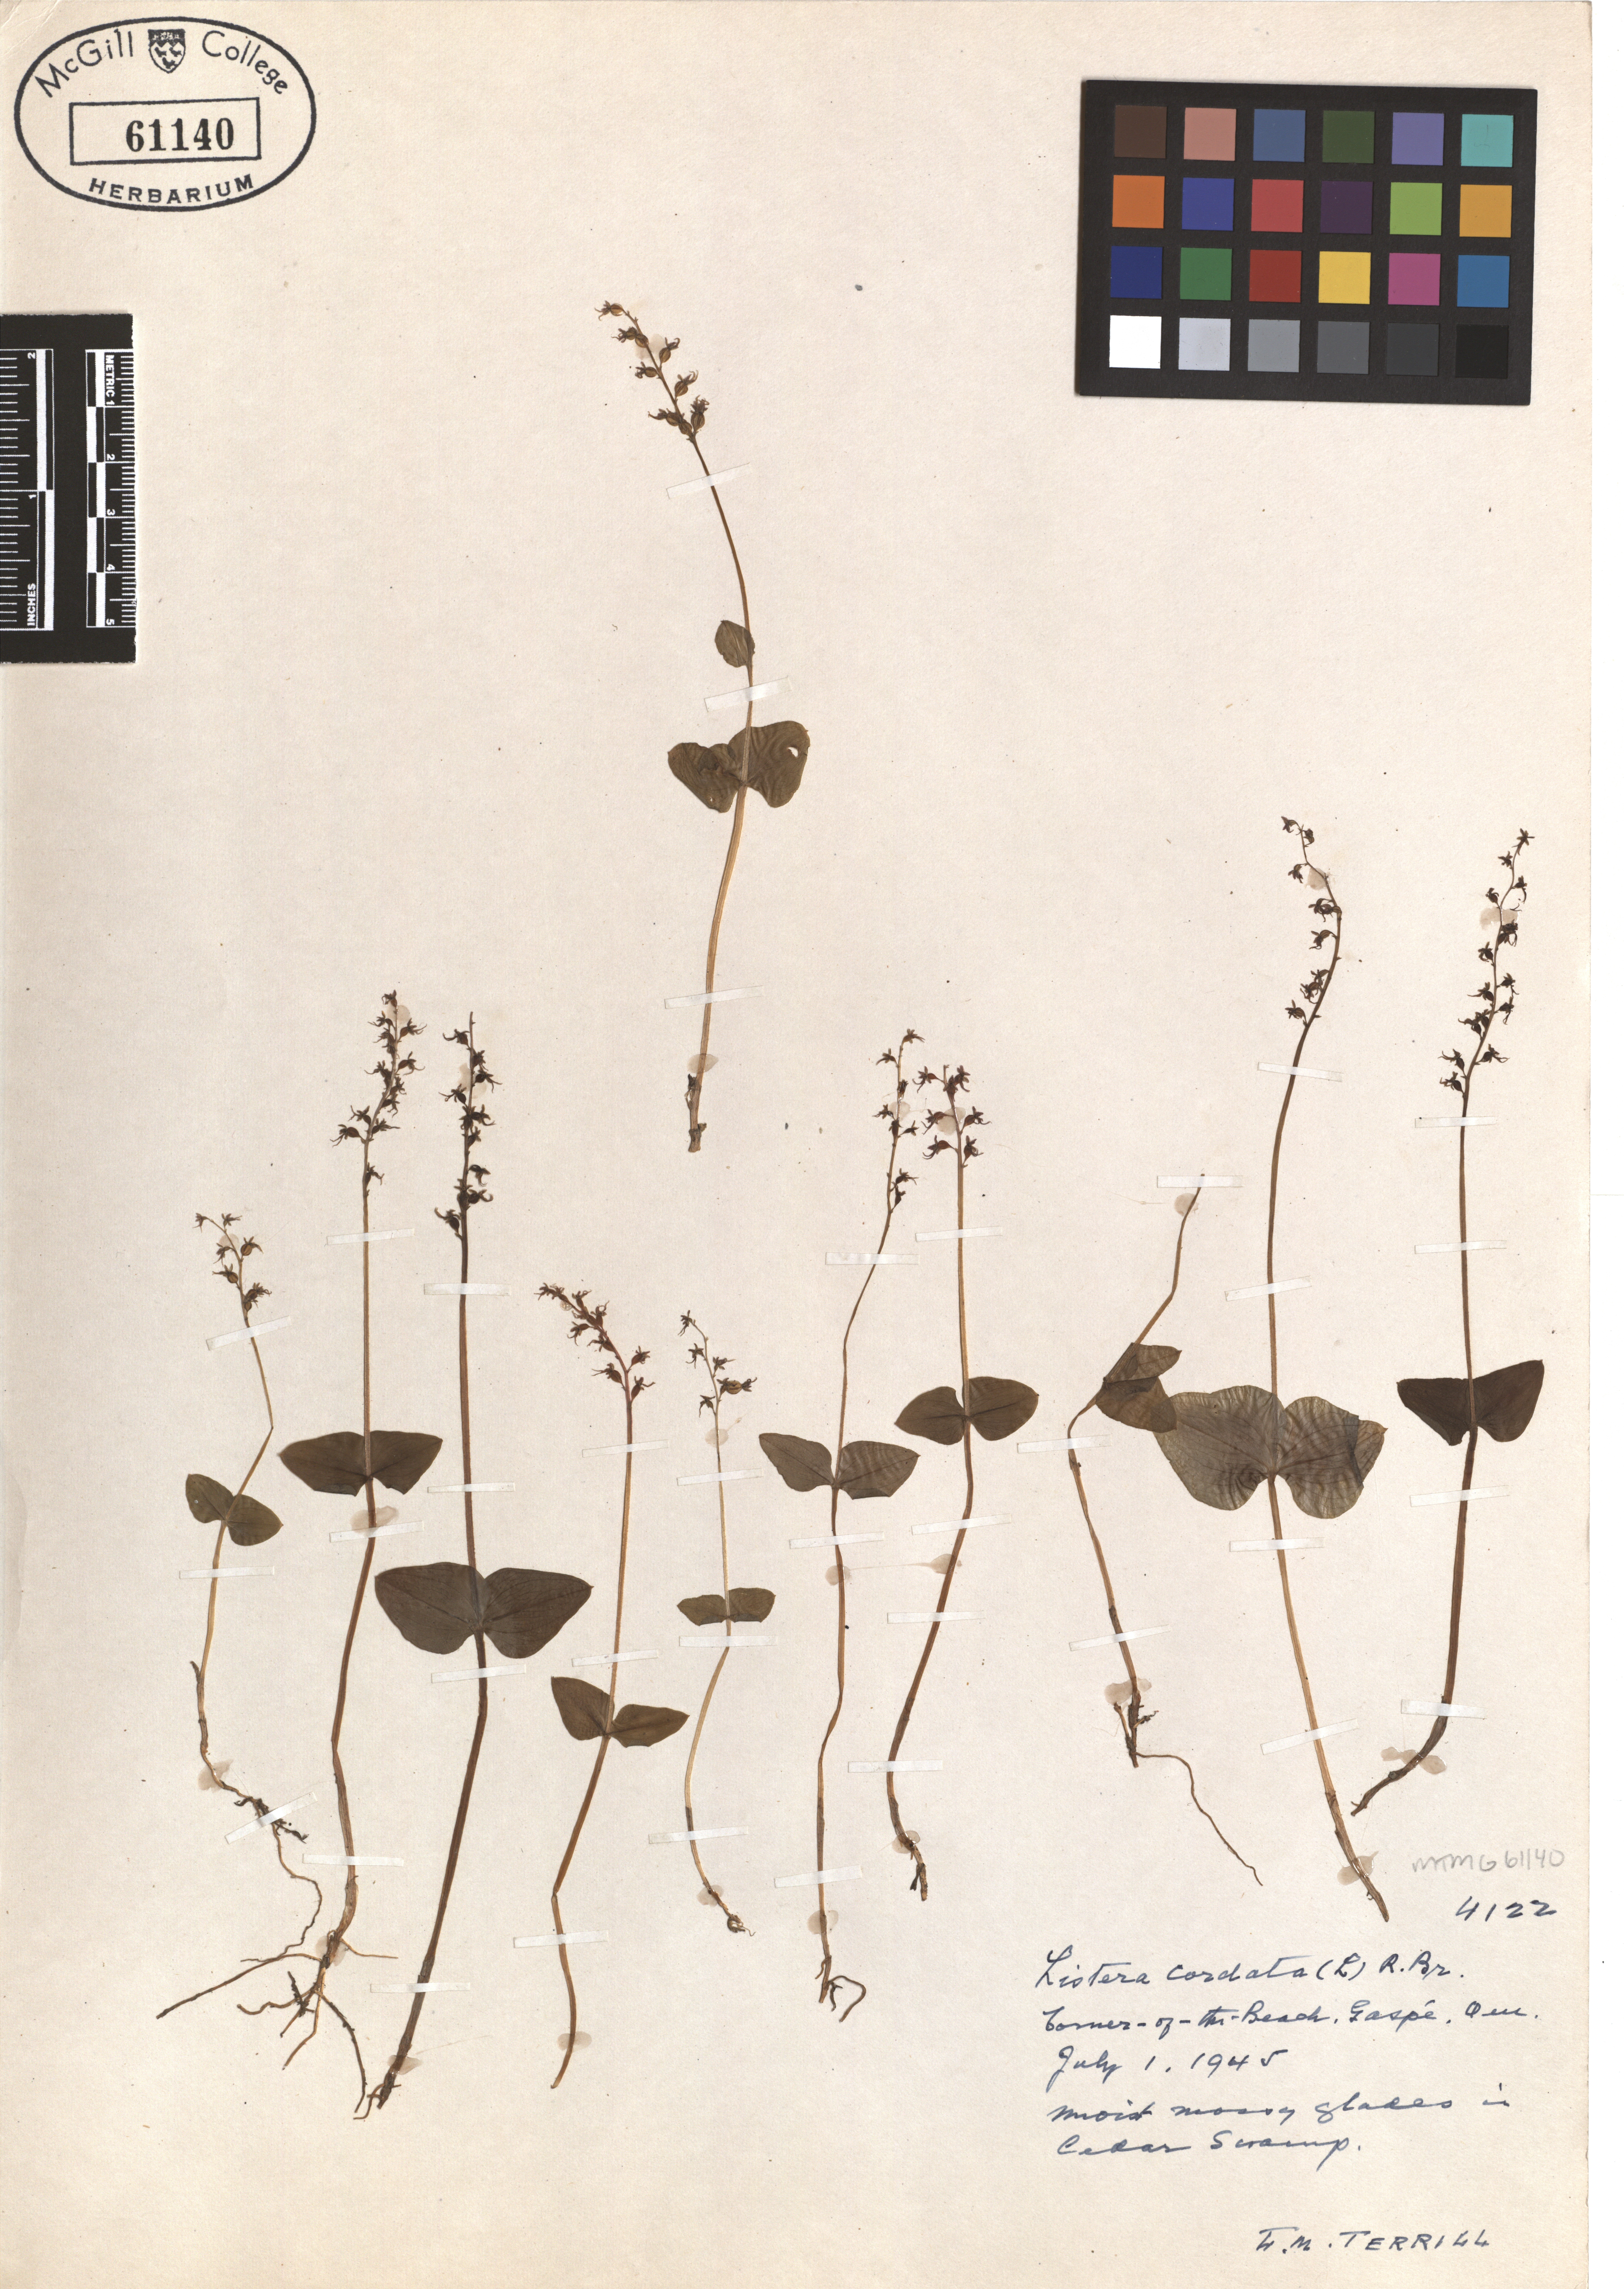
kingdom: Plantae
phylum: Tracheophyta
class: Liliopsida
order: Asparagales
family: Orchidaceae
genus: Neottia
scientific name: Neottia cordata
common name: Lesser twayblade
